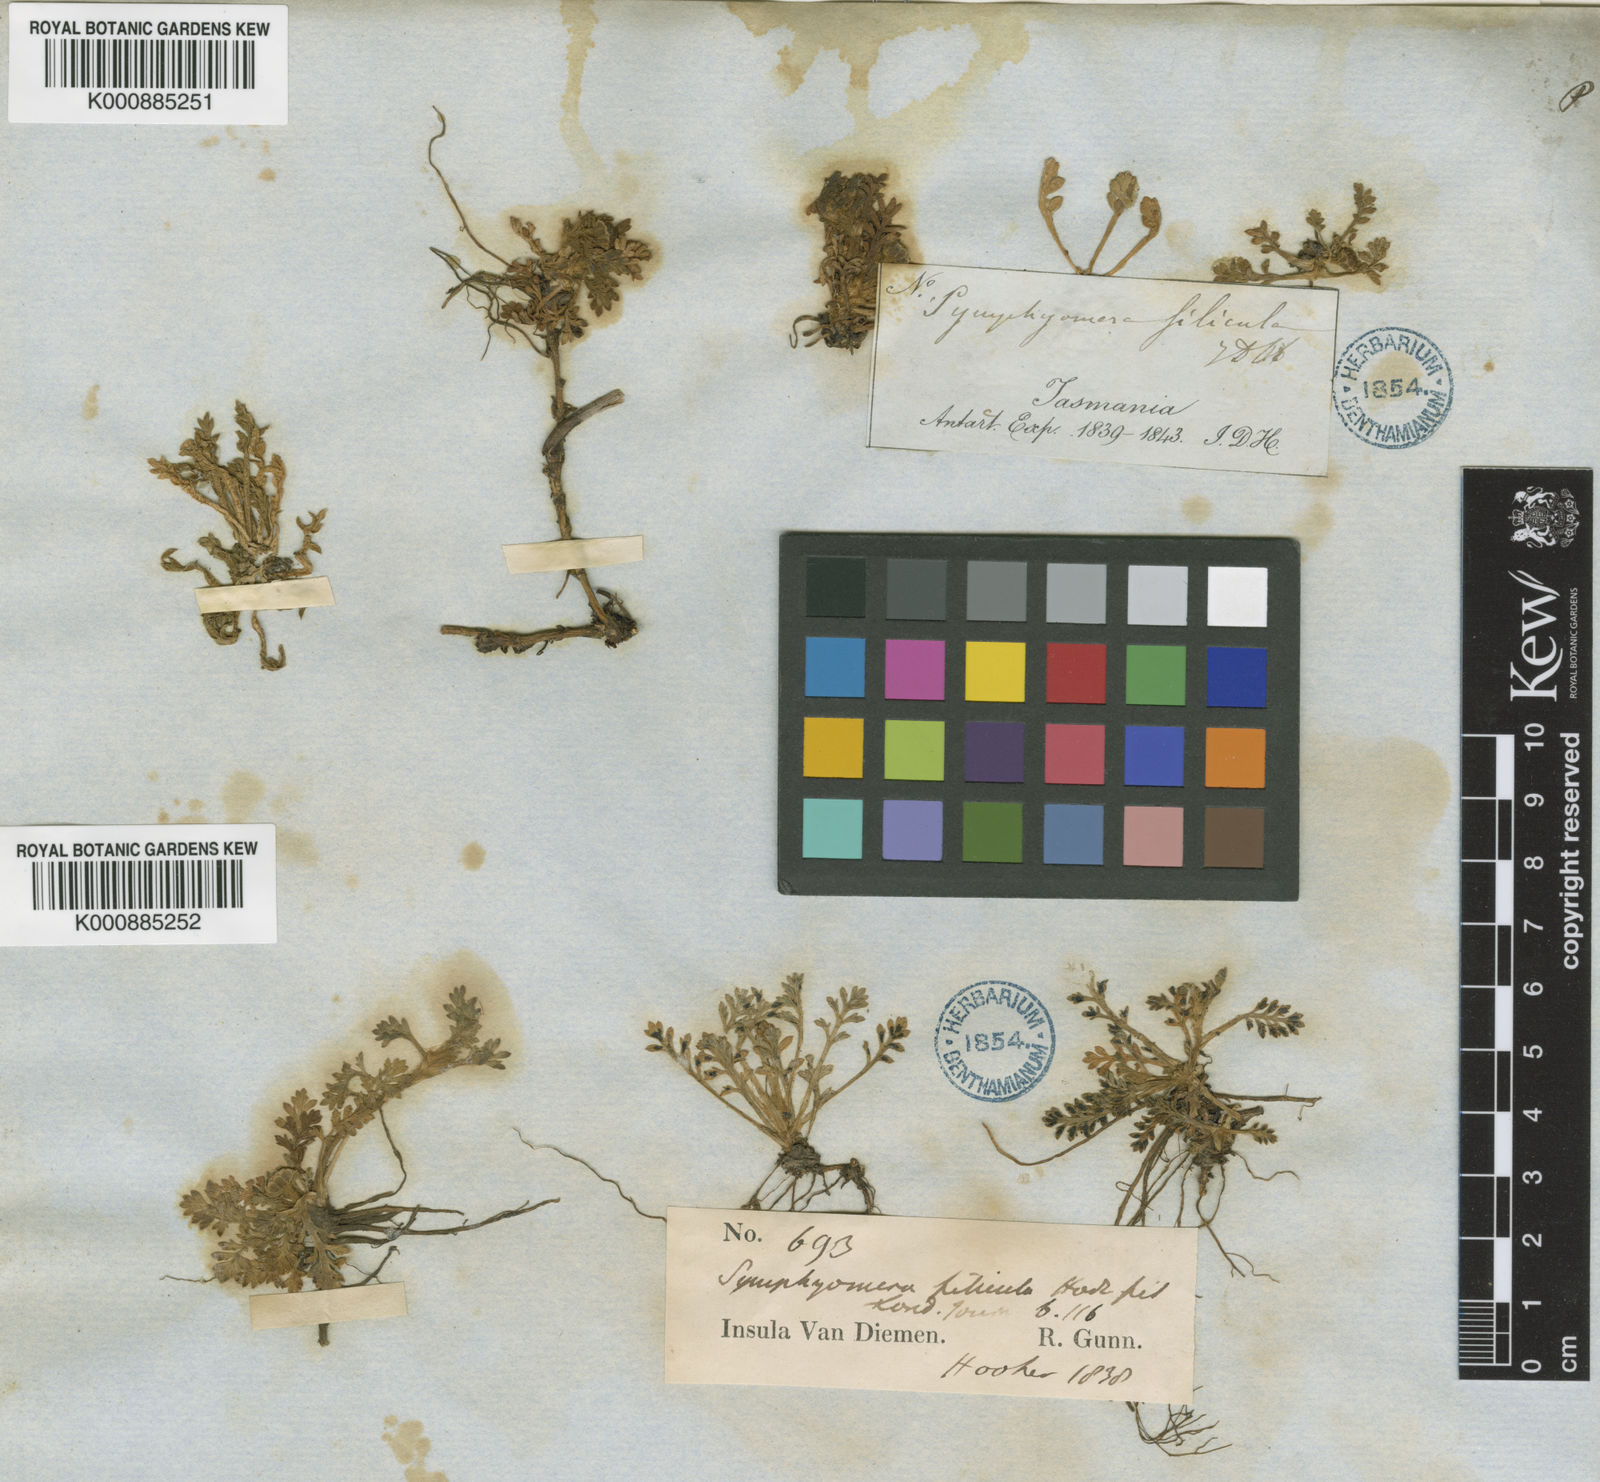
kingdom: Plantae
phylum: Tracheophyta
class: Magnoliopsida
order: Asterales
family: Asteraceae
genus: Leptinella
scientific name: Leptinella filicula
